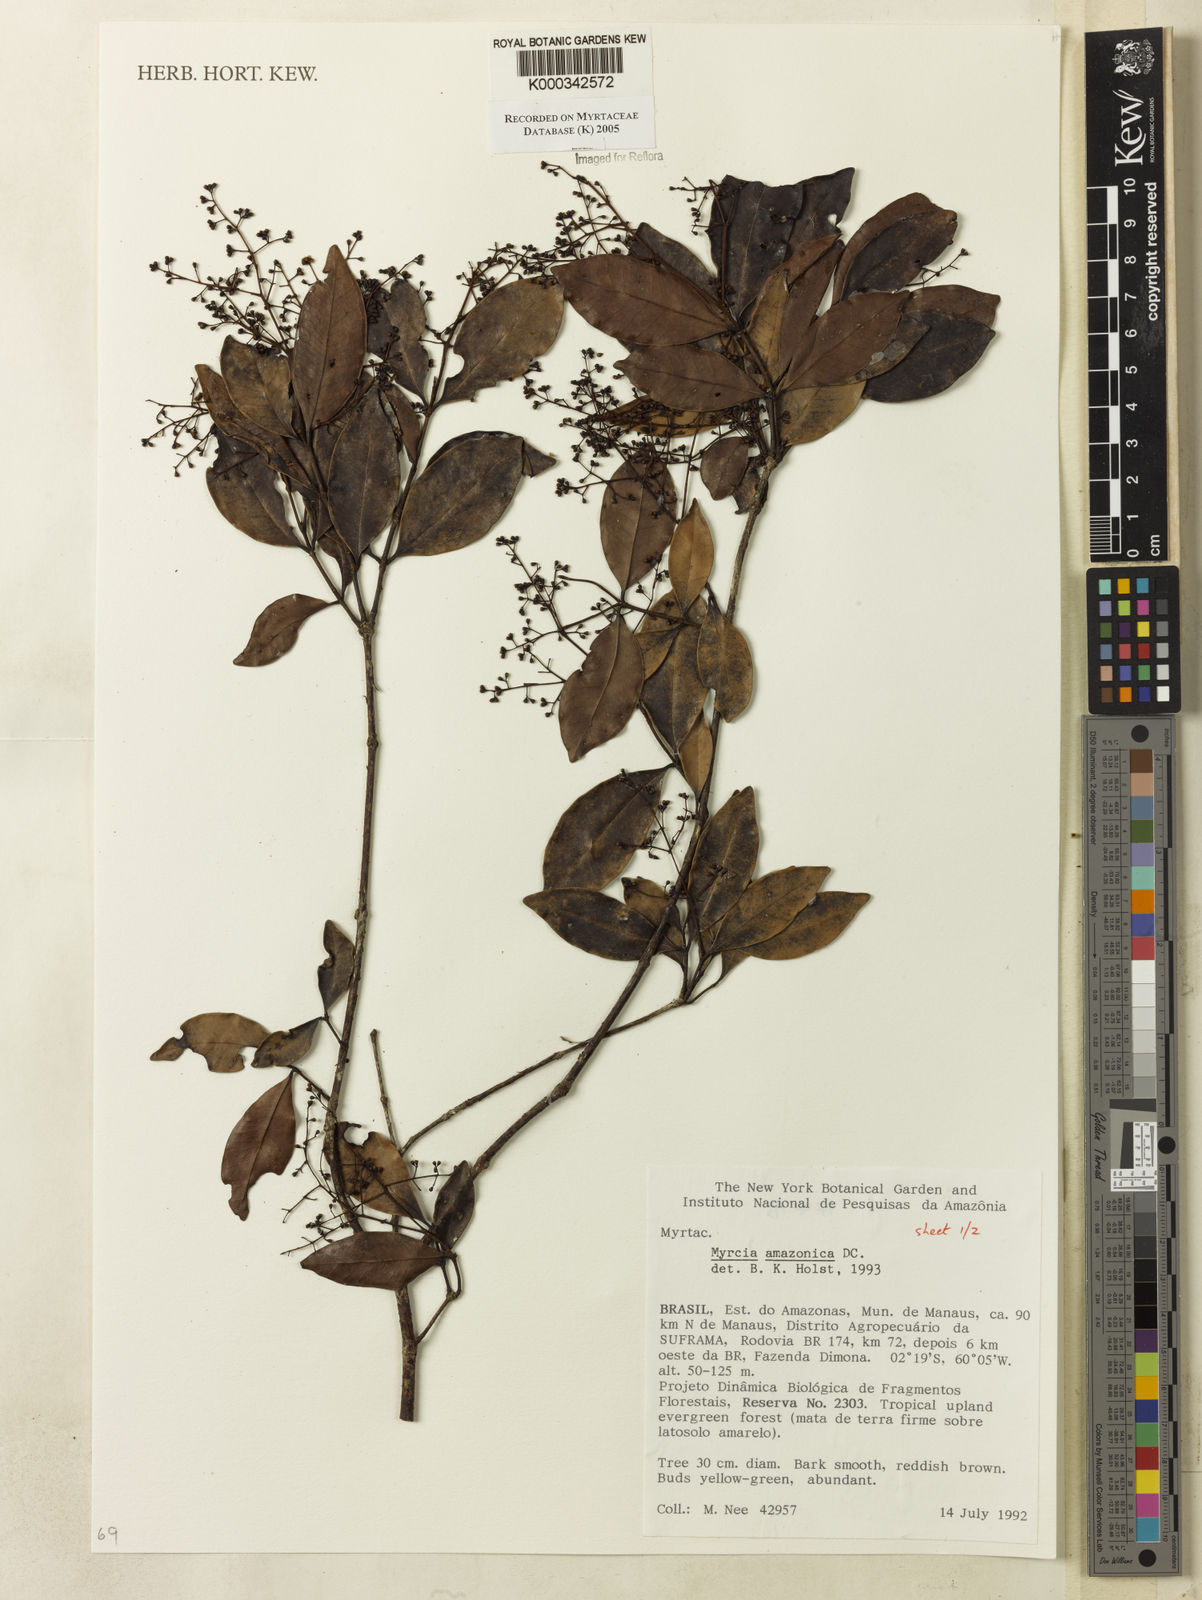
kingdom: Plantae
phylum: Tracheophyta
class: Magnoliopsida
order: Myrtales
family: Myrtaceae
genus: Myrcia
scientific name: Myrcia amazonica
